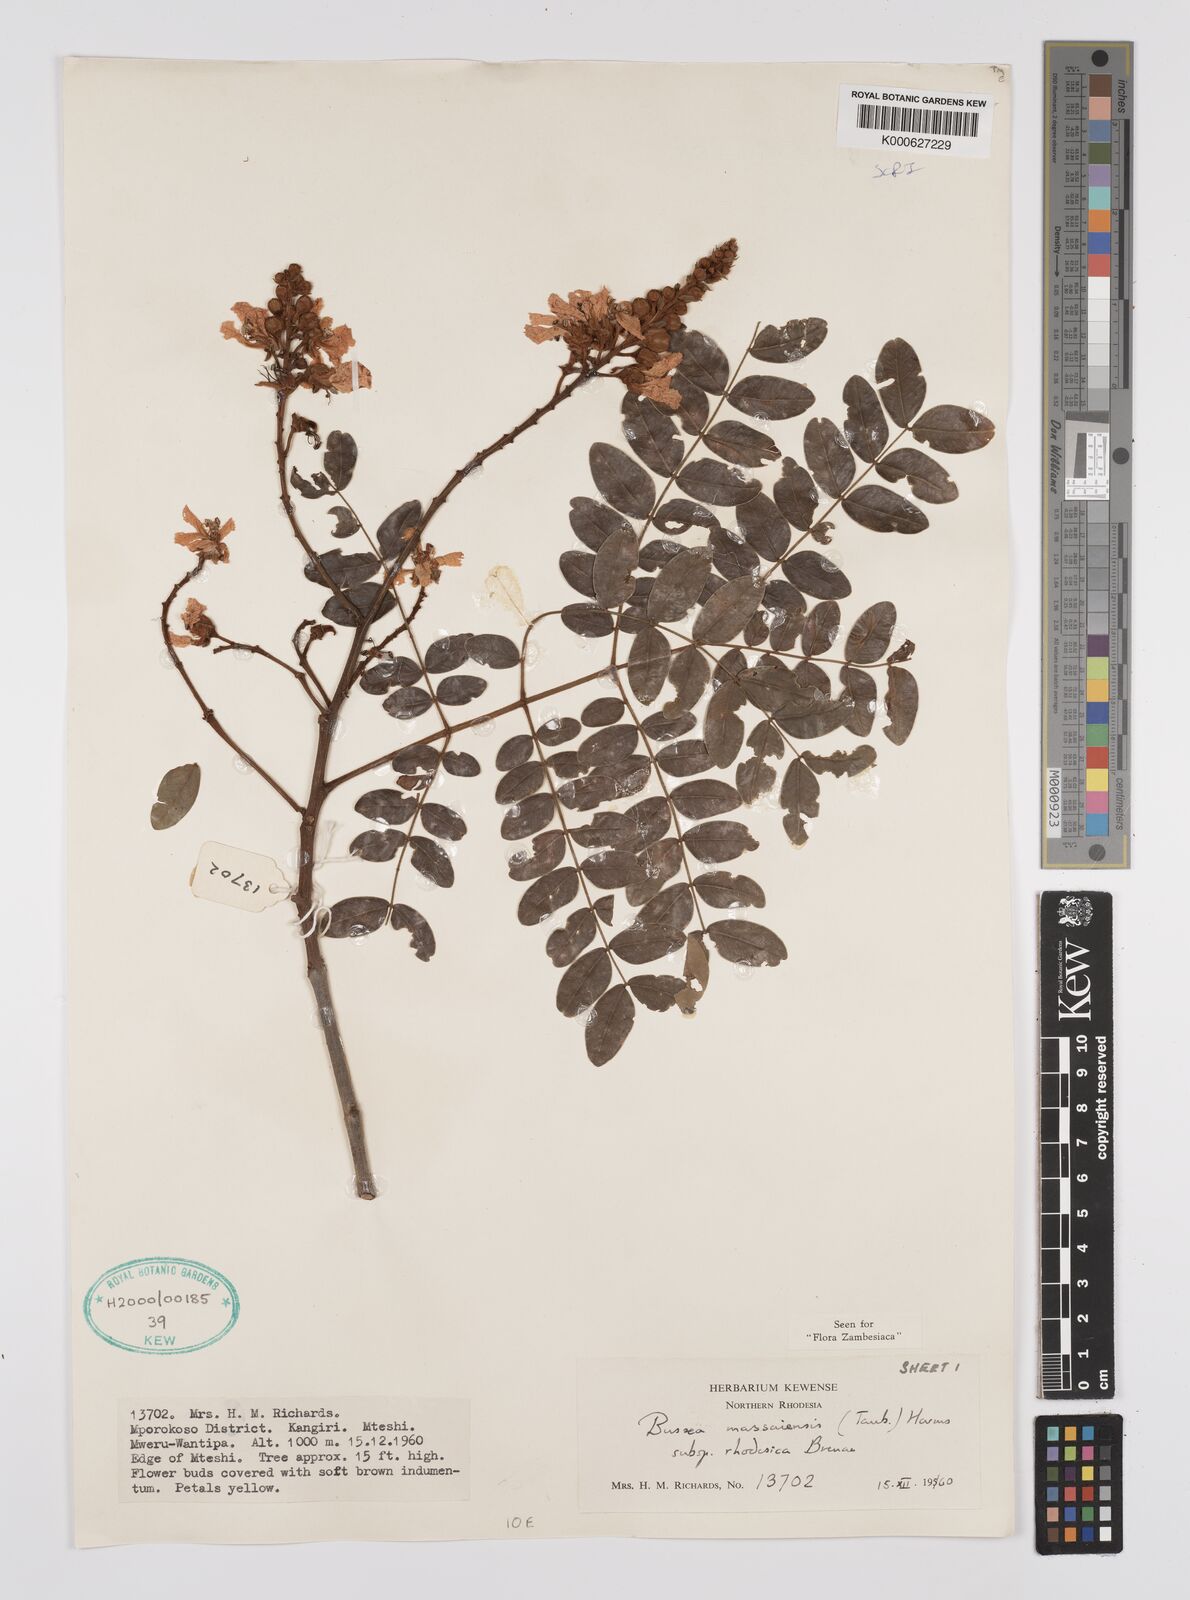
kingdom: Plantae
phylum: Tracheophyta
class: Magnoliopsida
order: Fabales
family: Fabaceae
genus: Bussea
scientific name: Bussea
